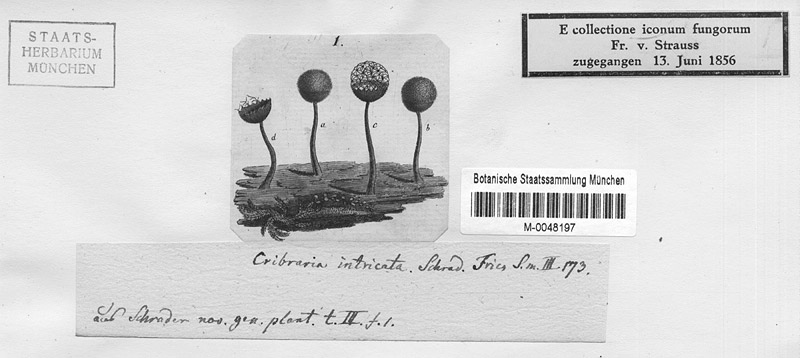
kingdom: Protozoa
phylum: Mycetozoa
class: Myxomycetes
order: Cribrariales
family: Cribrariaceae
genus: Cribraria
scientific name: Cribraria intricata
